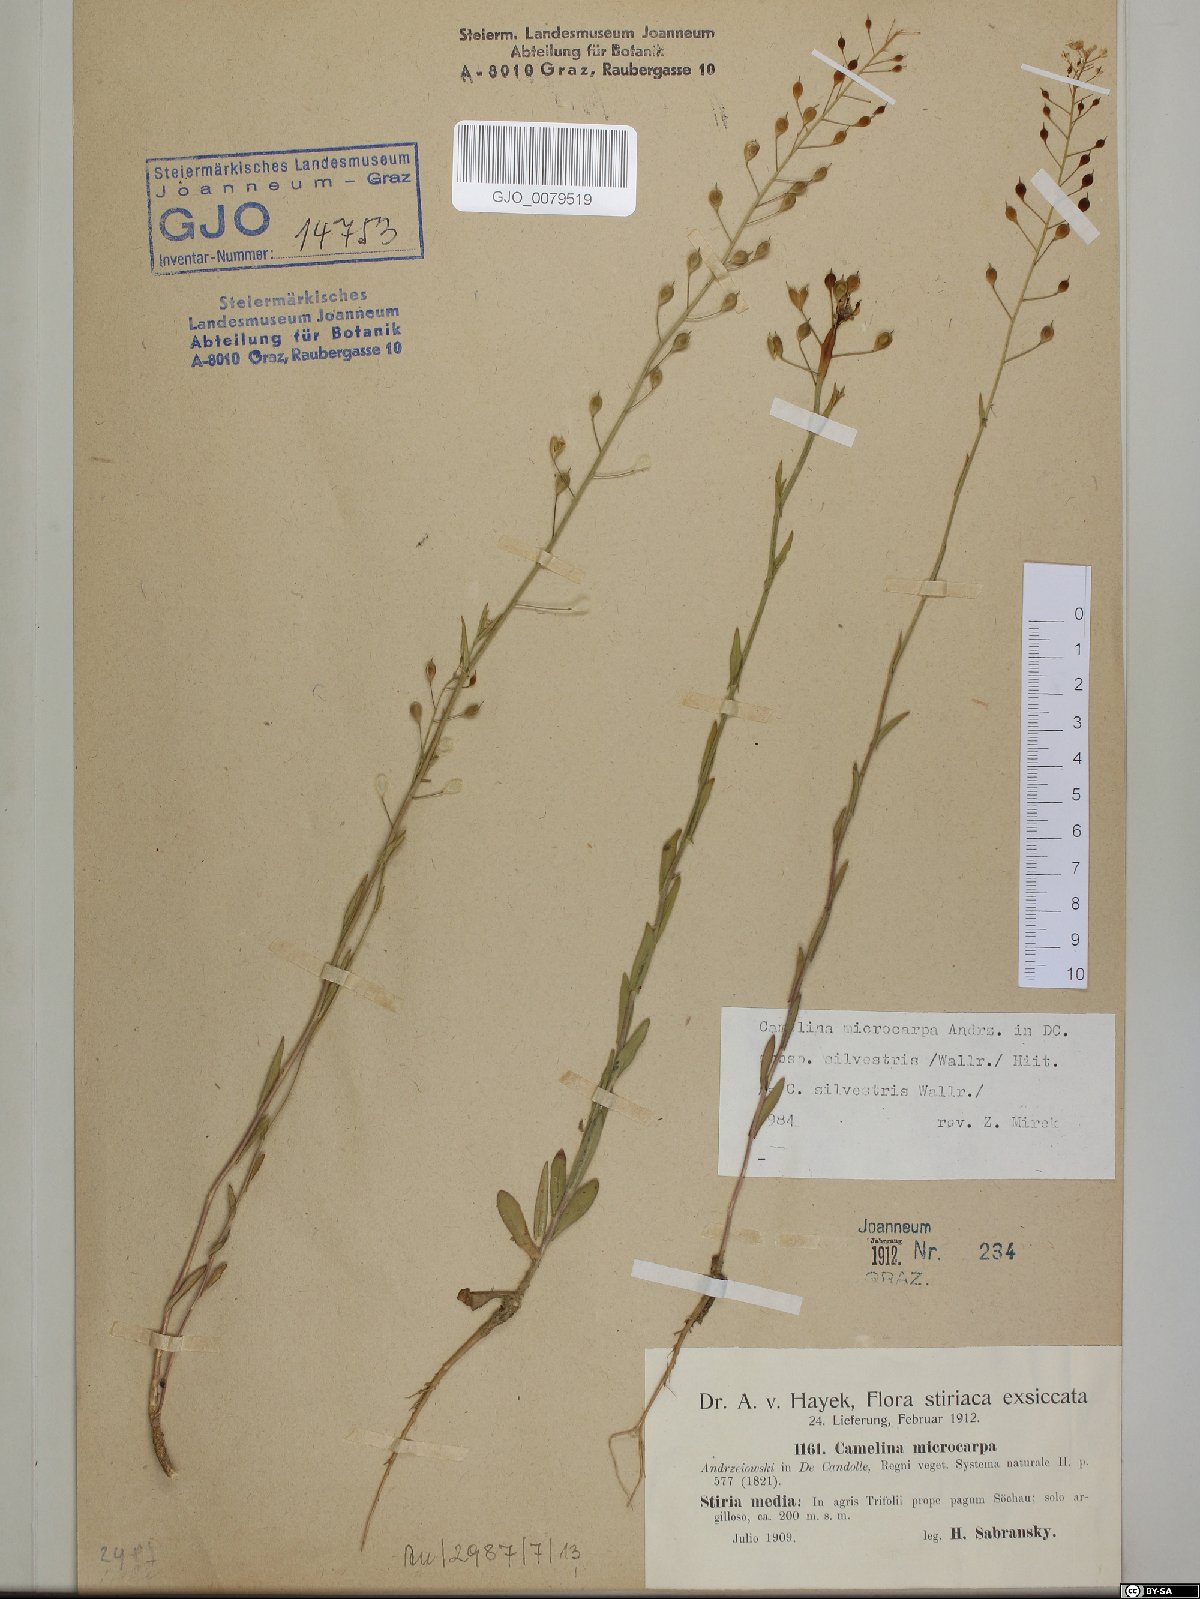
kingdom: Plantae
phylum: Tracheophyta
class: Magnoliopsida
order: Brassicales
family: Brassicaceae
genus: Camelina
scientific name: Camelina microcarpa
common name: Lesser gold-of-pleasure
